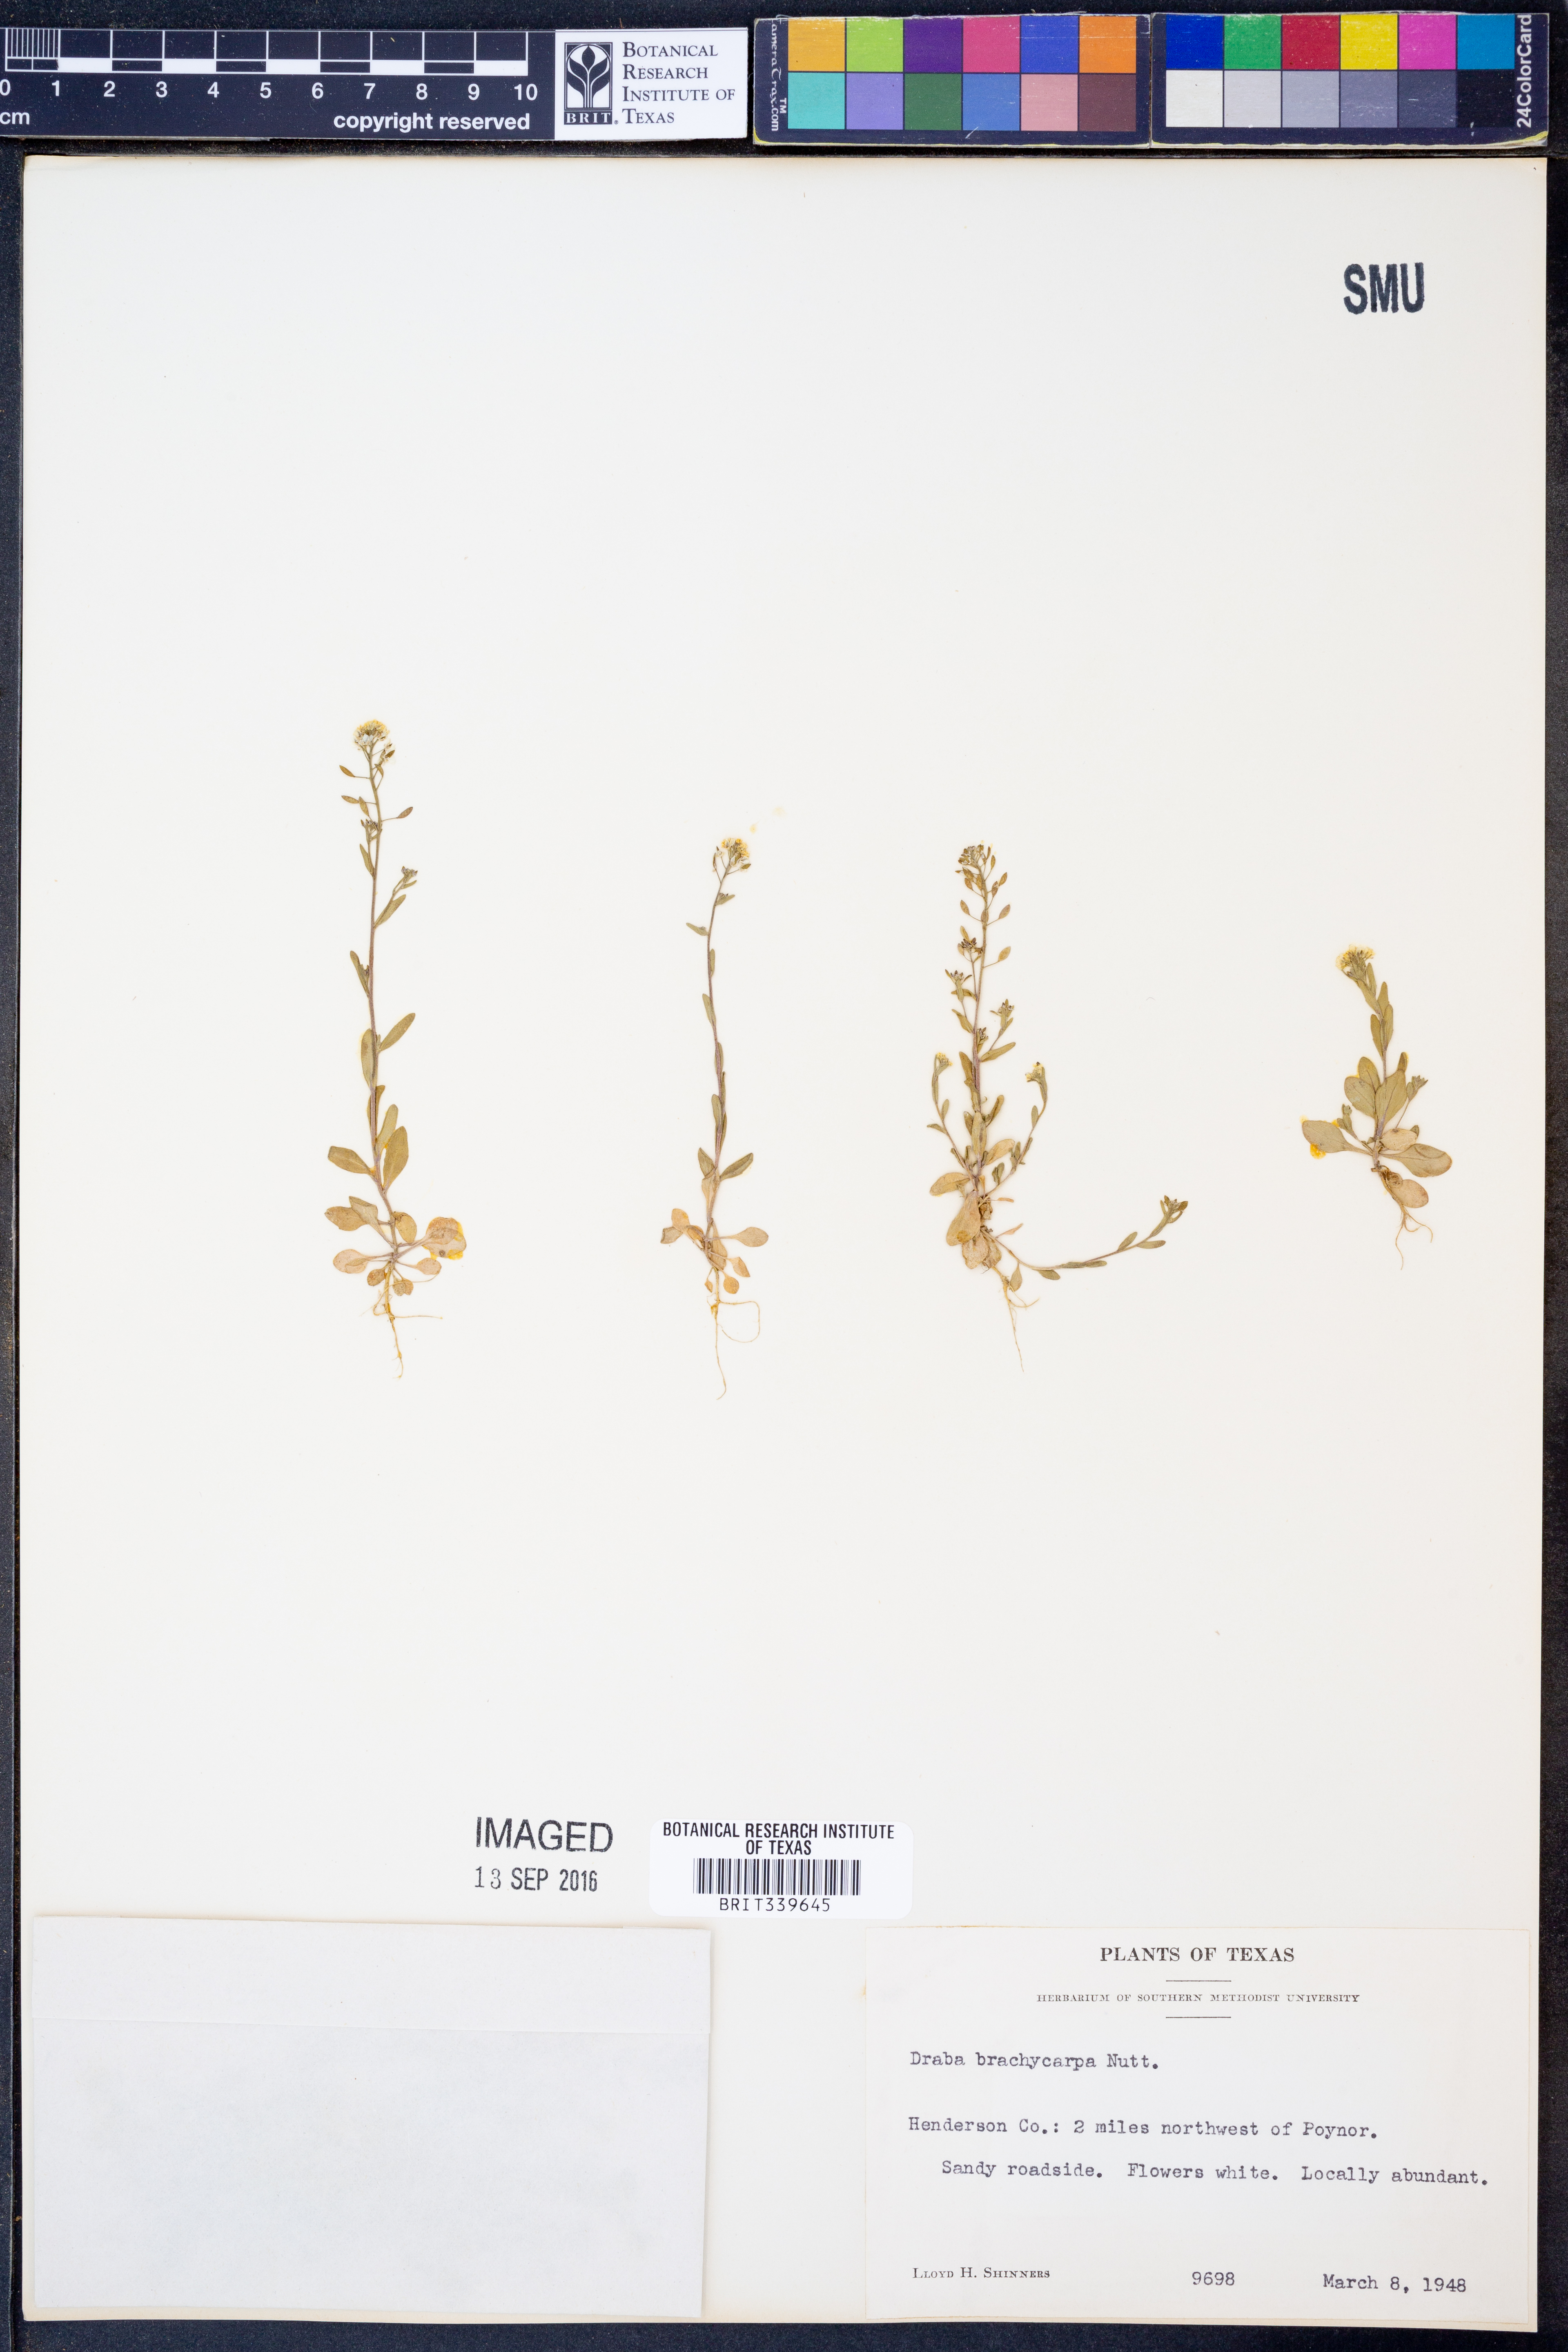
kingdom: Plantae
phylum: Tracheophyta
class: Magnoliopsida
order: Brassicales
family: Brassicaceae
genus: Abdra
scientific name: Abdra brachycarpa
